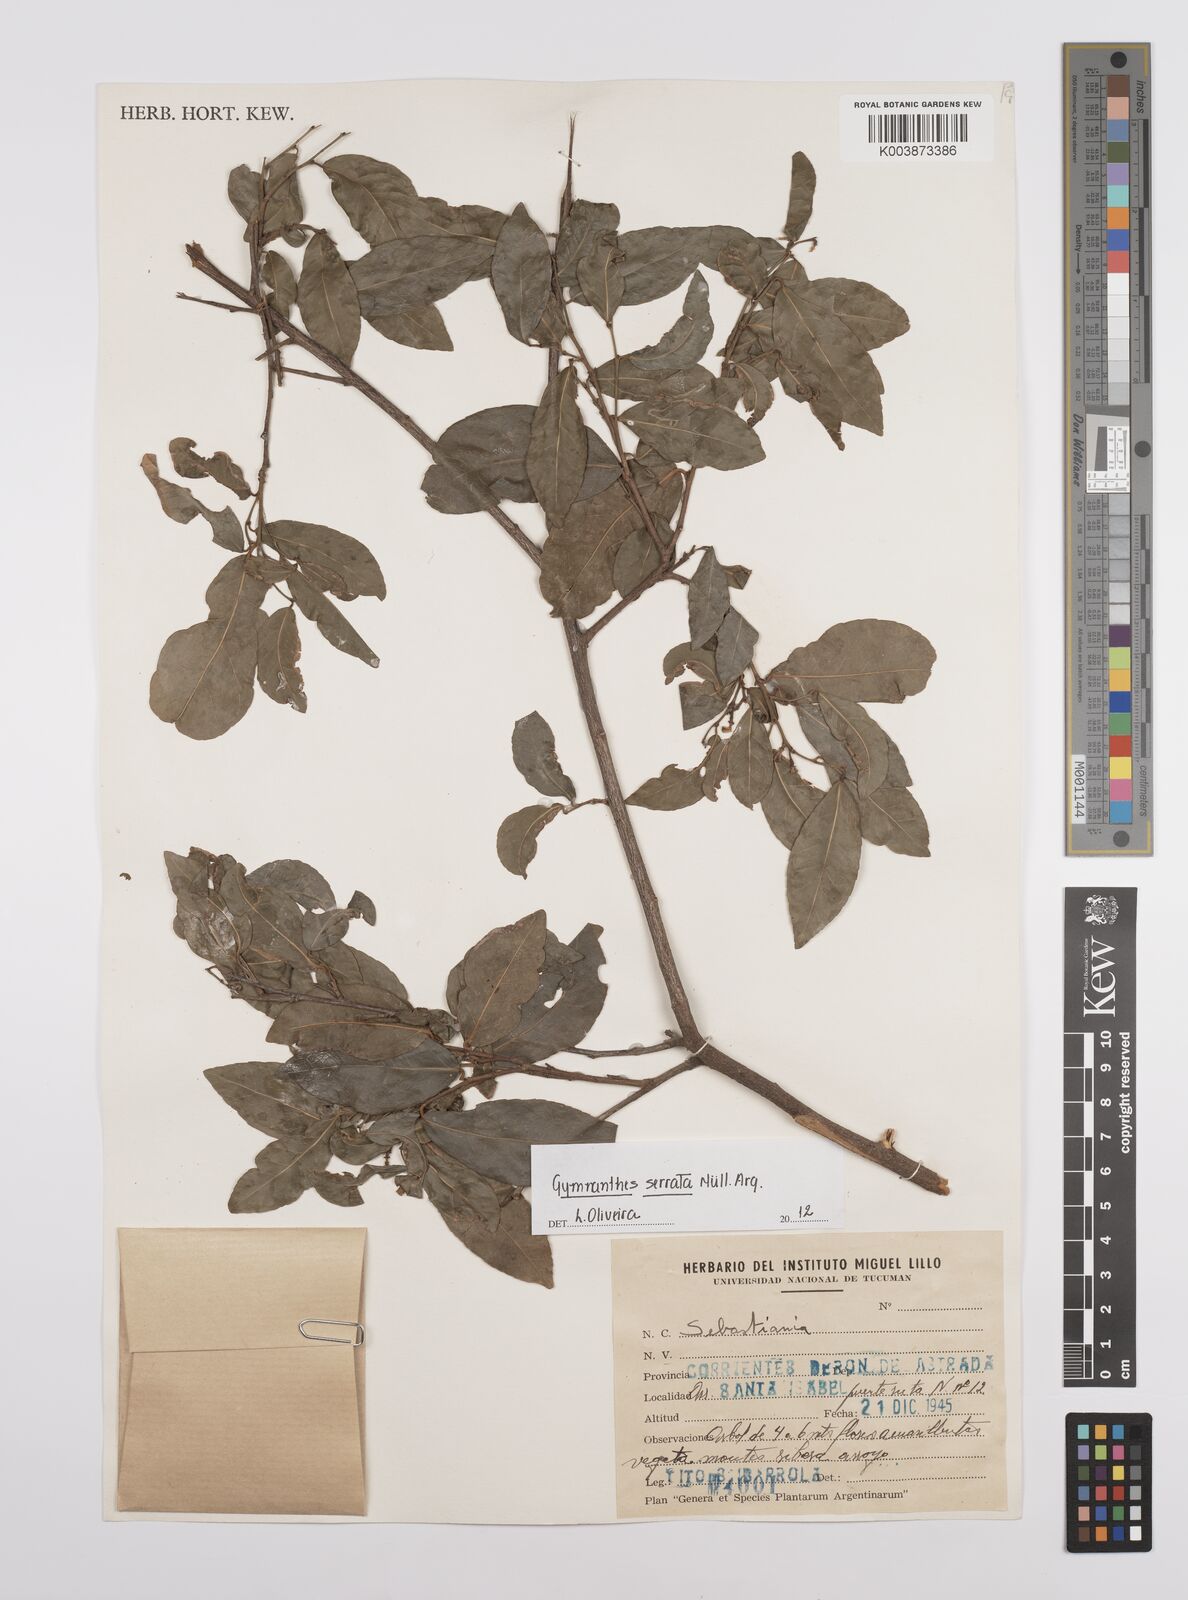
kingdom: Plantae
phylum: Tracheophyta
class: Magnoliopsida
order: Malpighiales
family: Euphorbiaceae
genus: Sebastiania
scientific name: Sebastiania serrata
